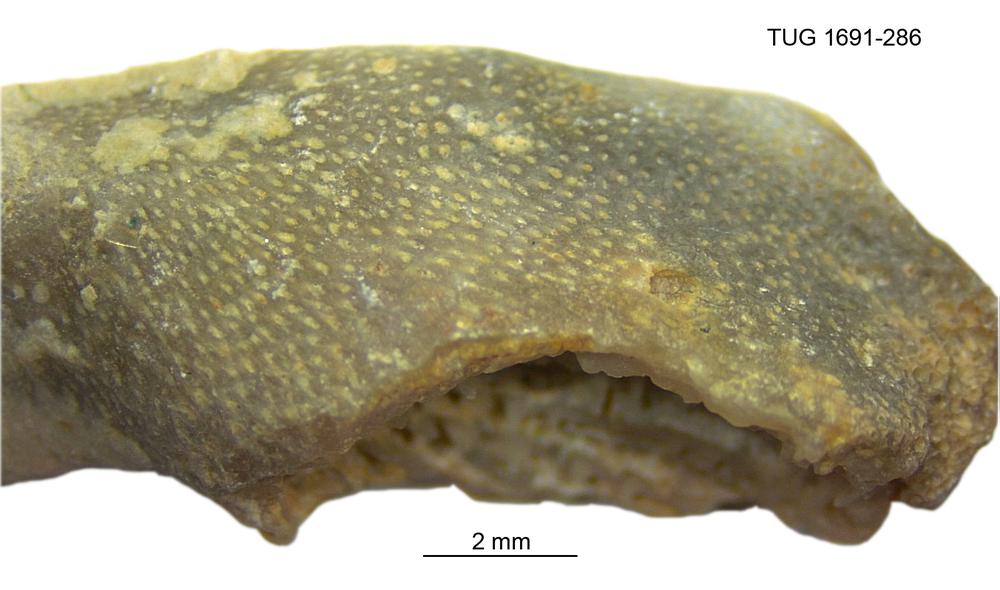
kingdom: Animalia
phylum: Bryozoa
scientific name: Bryozoa
